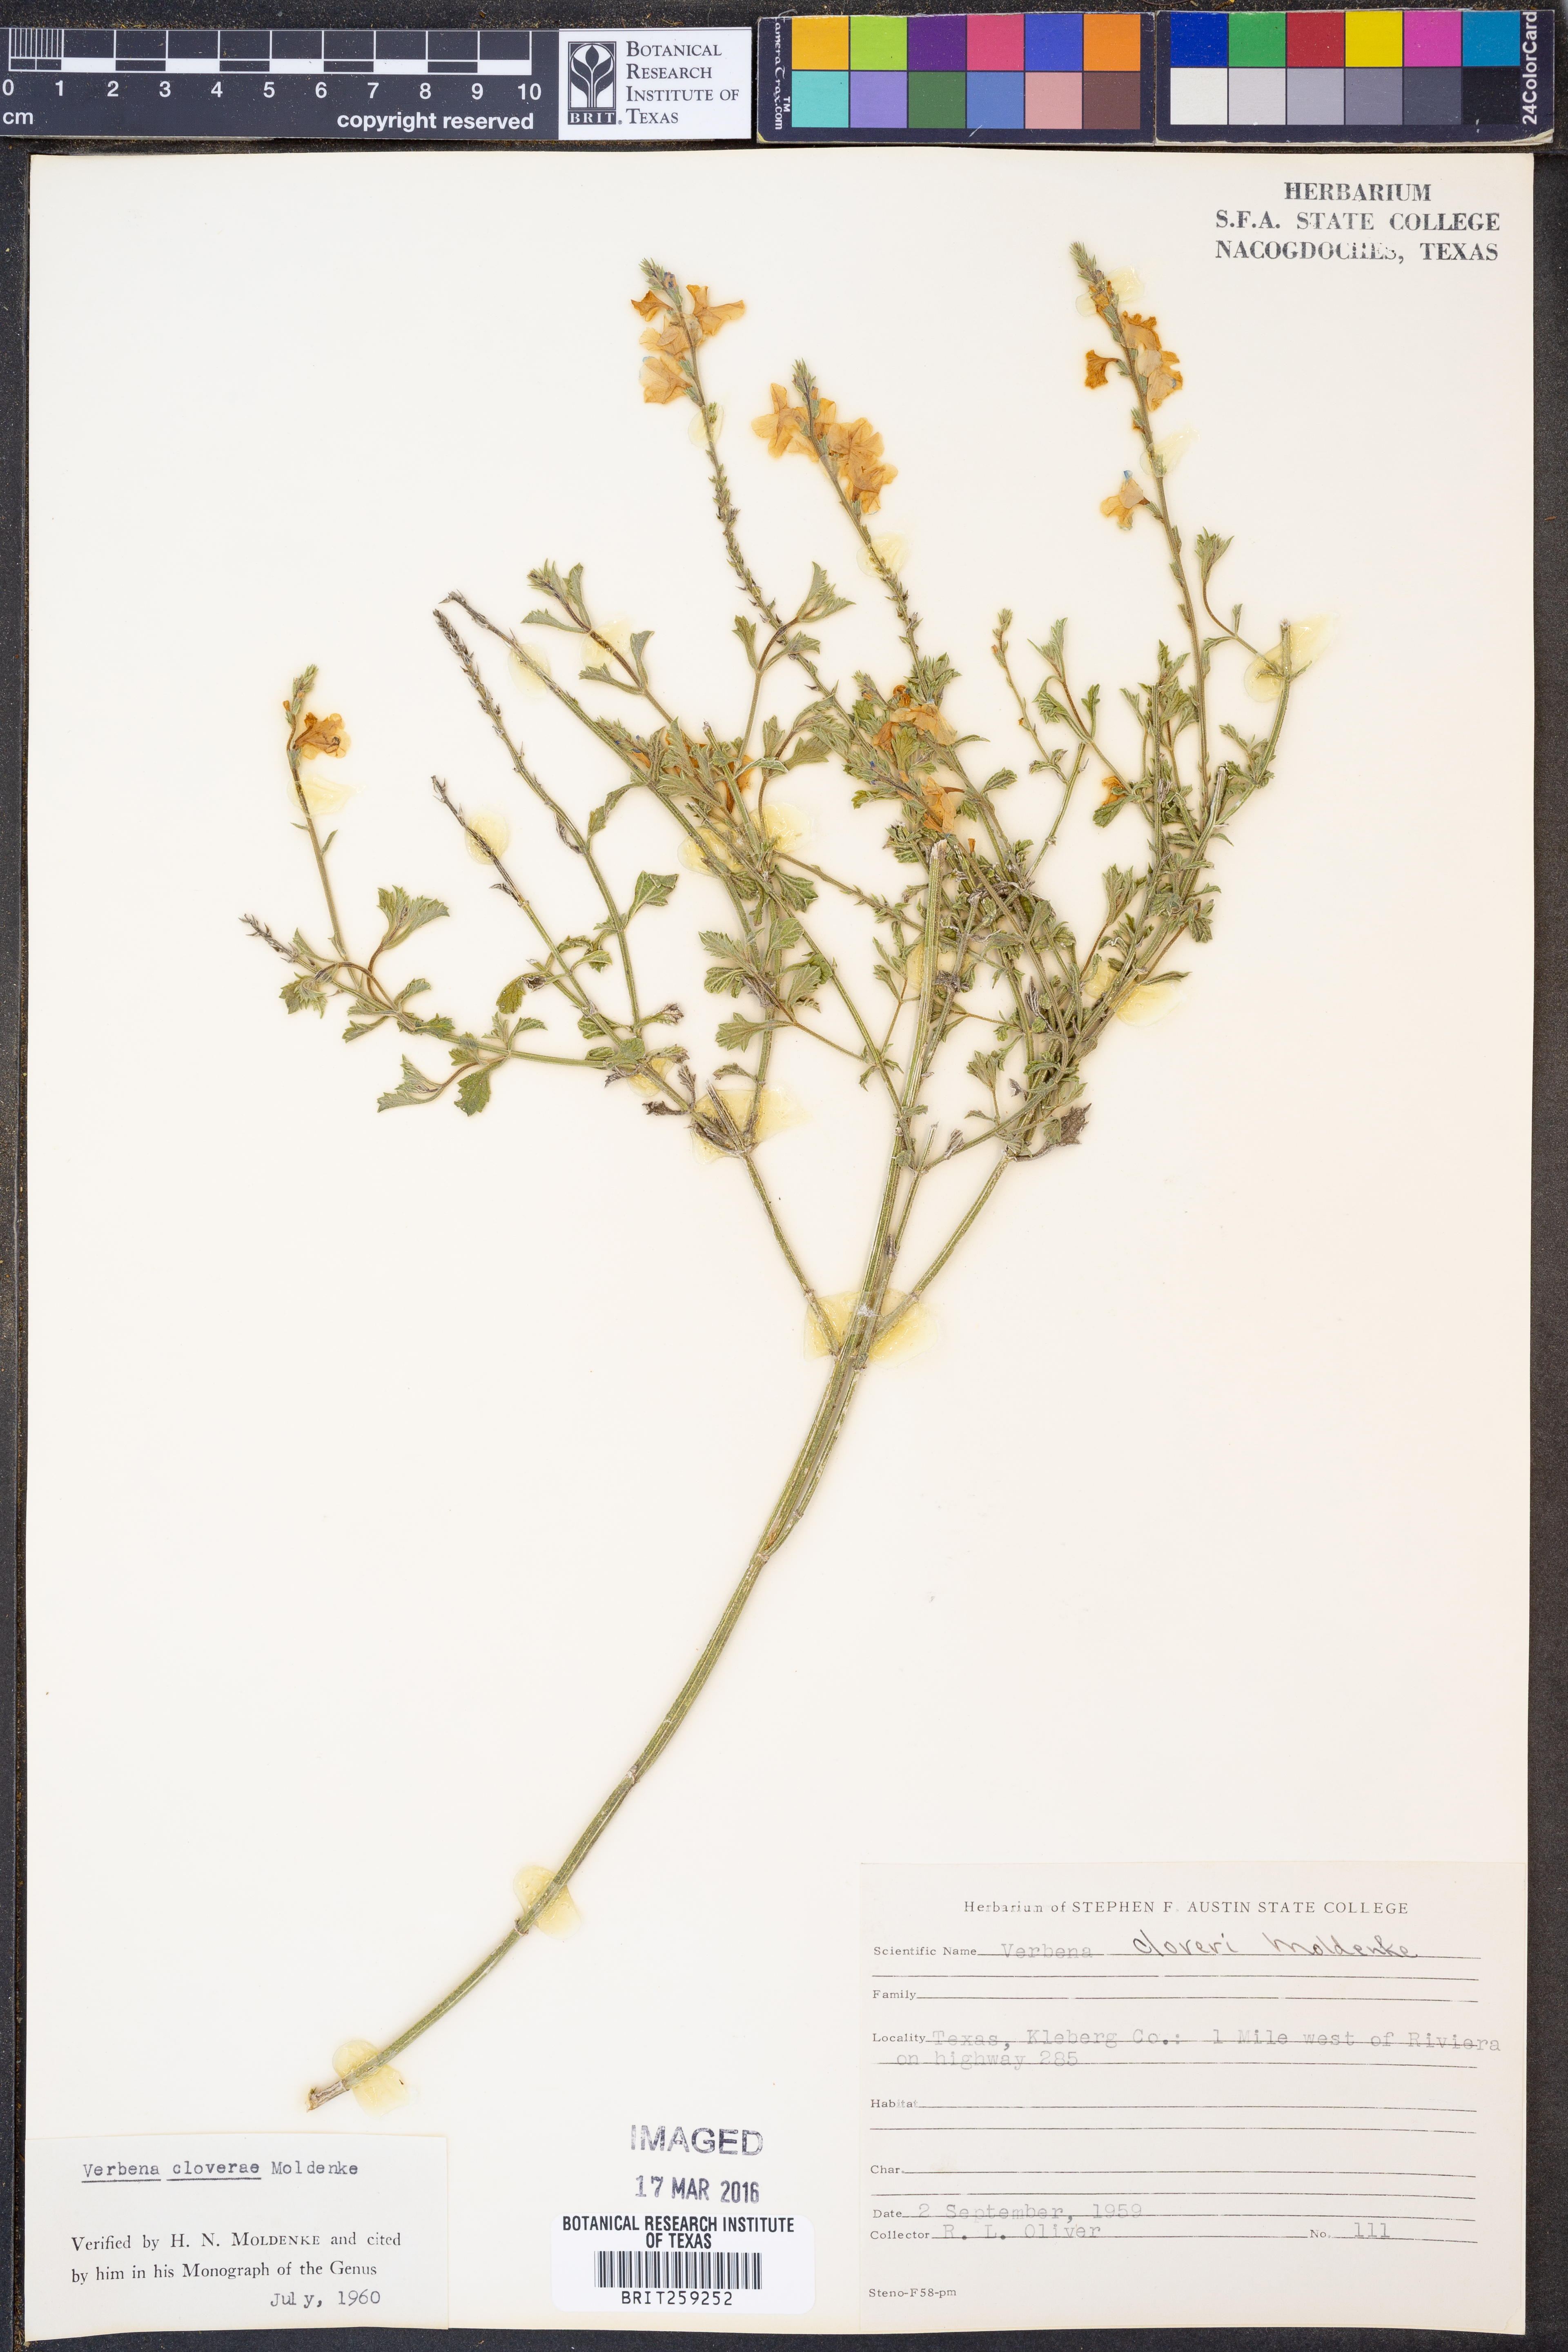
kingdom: Plantae
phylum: Tracheophyta
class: Magnoliopsida
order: Lamiales
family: Verbenaceae
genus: Verbena
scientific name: Verbena cloverae
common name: Clover's vervain
